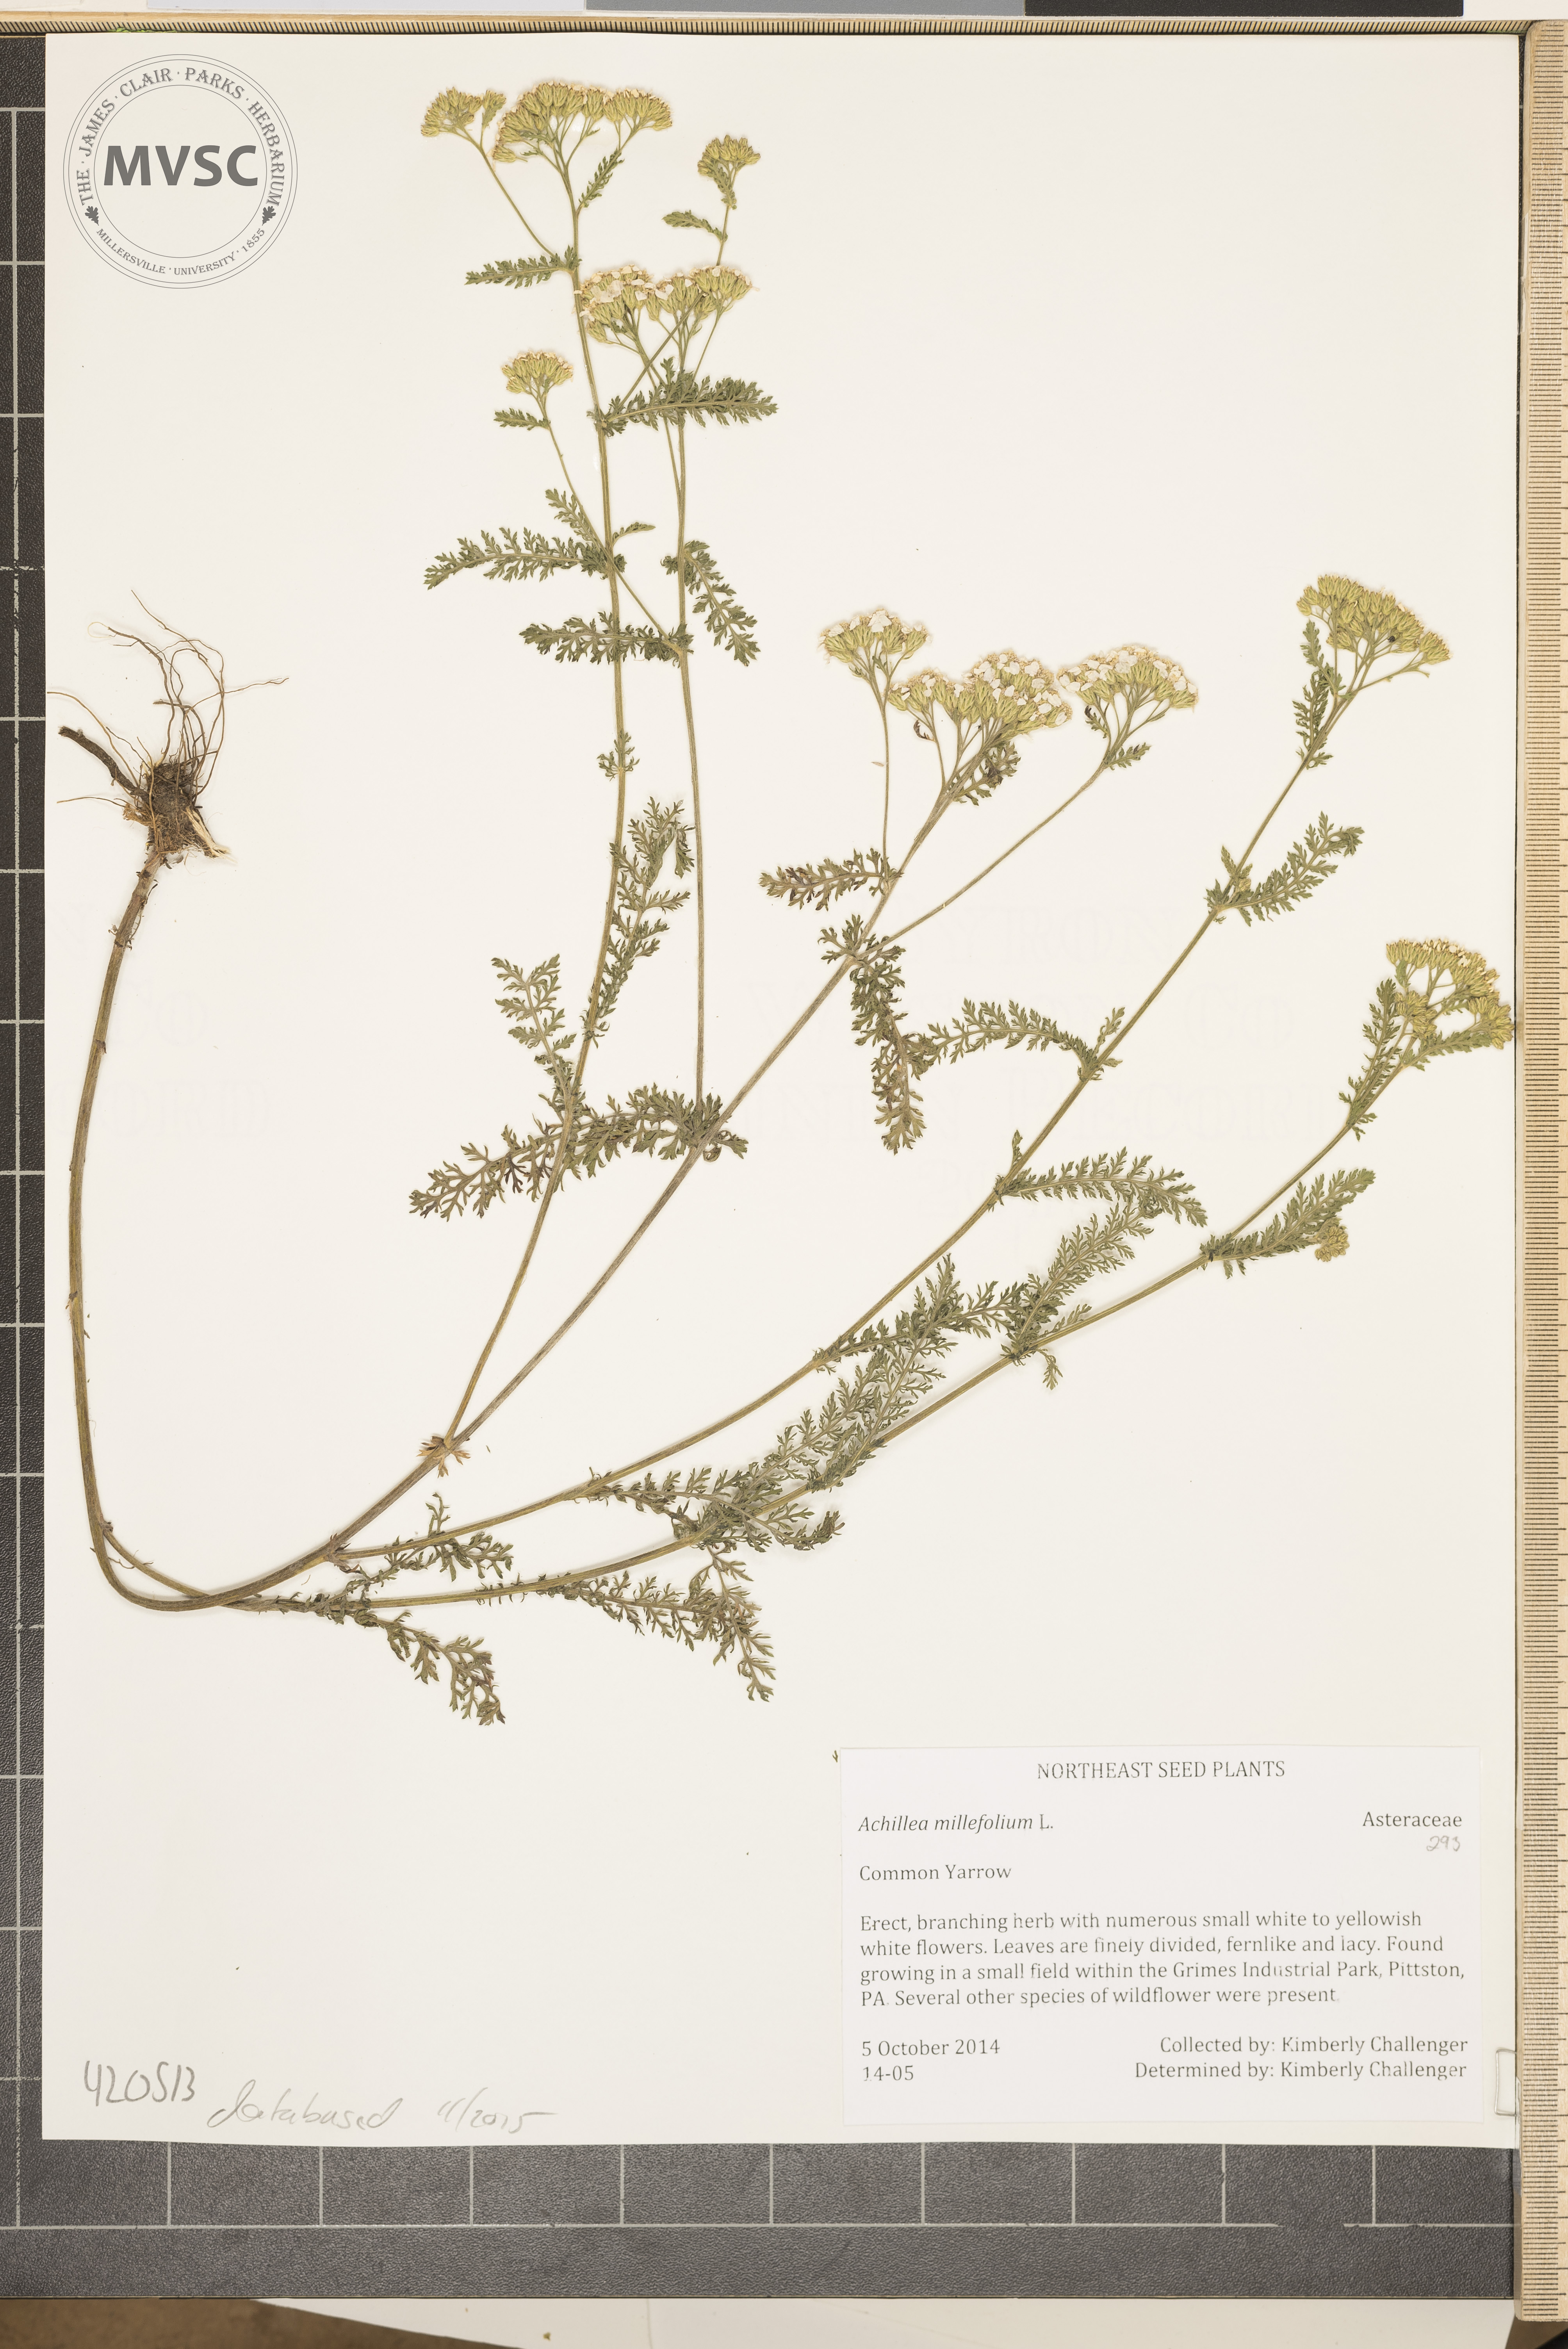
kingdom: Plantae
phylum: Tracheophyta
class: Magnoliopsida
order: Asterales
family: Asteraceae
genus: Achillea
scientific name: Achillea millefolium
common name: Common Yarrow
